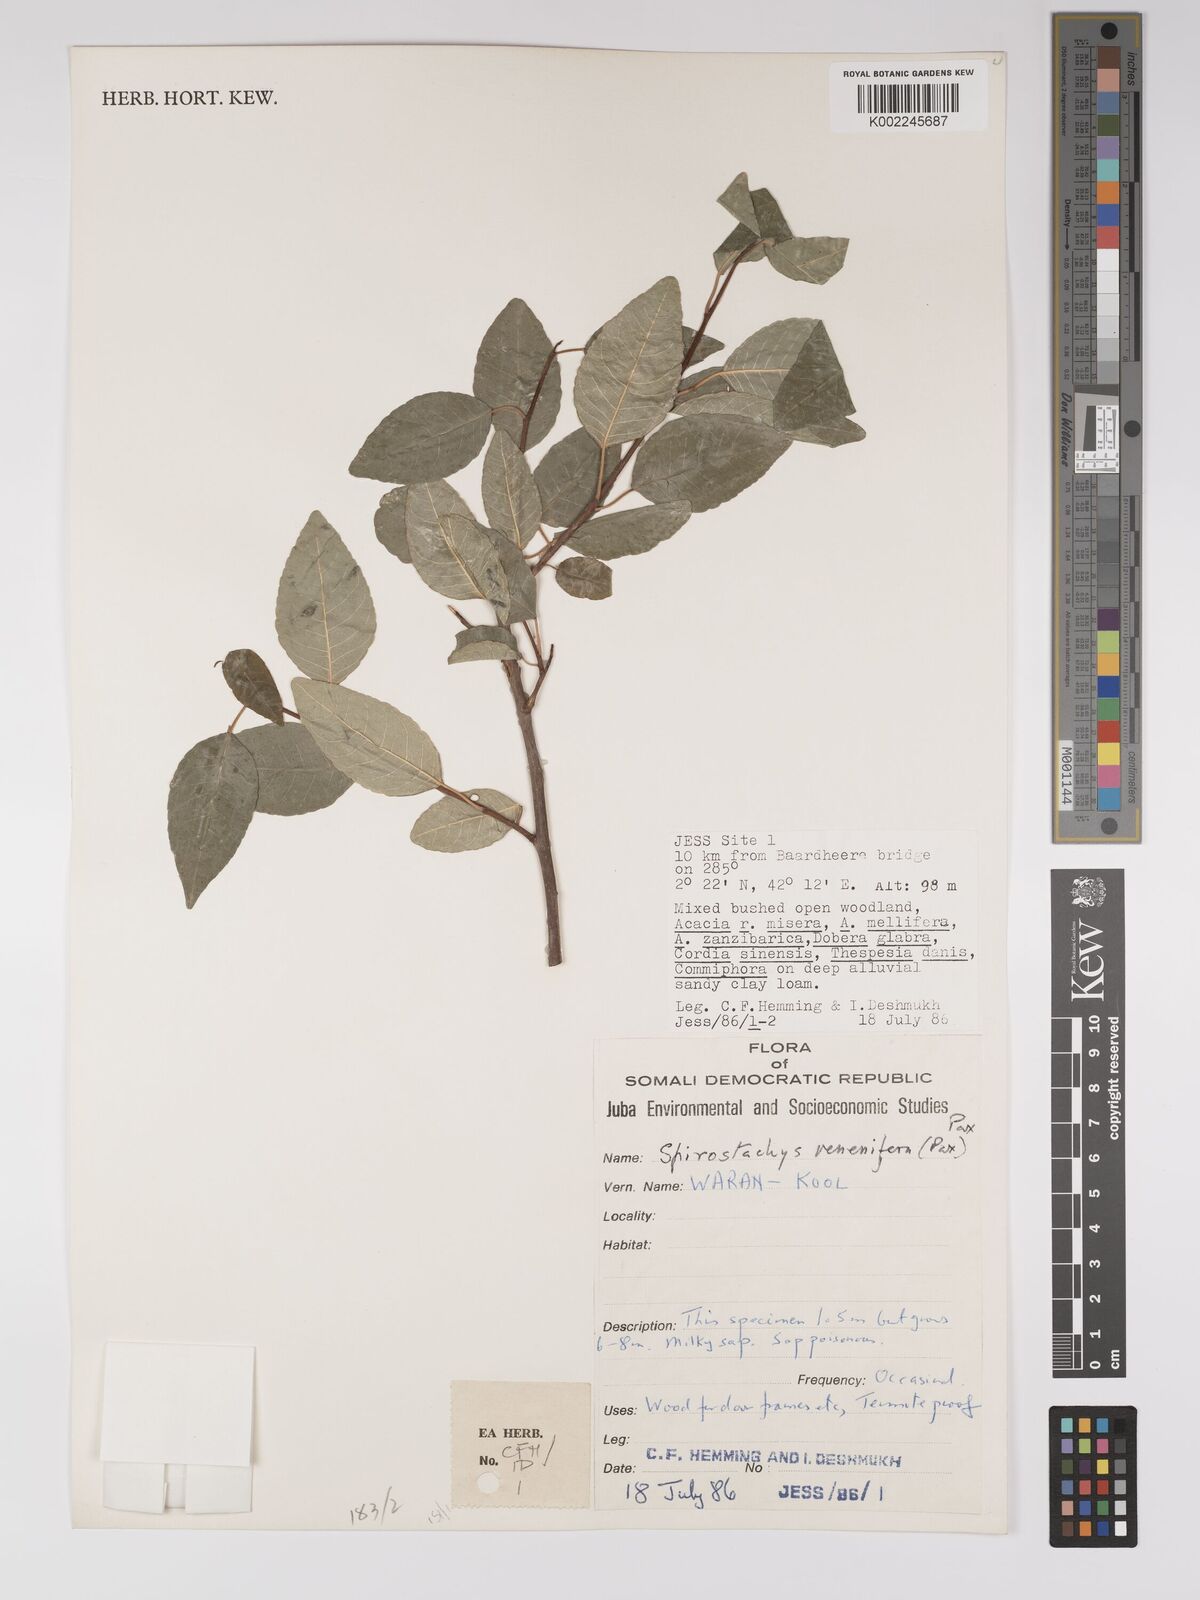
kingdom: Plantae
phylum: Tracheophyta
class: Magnoliopsida
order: Malpighiales
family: Euphorbiaceae
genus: Spirostachys
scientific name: Spirostachys venenifera
